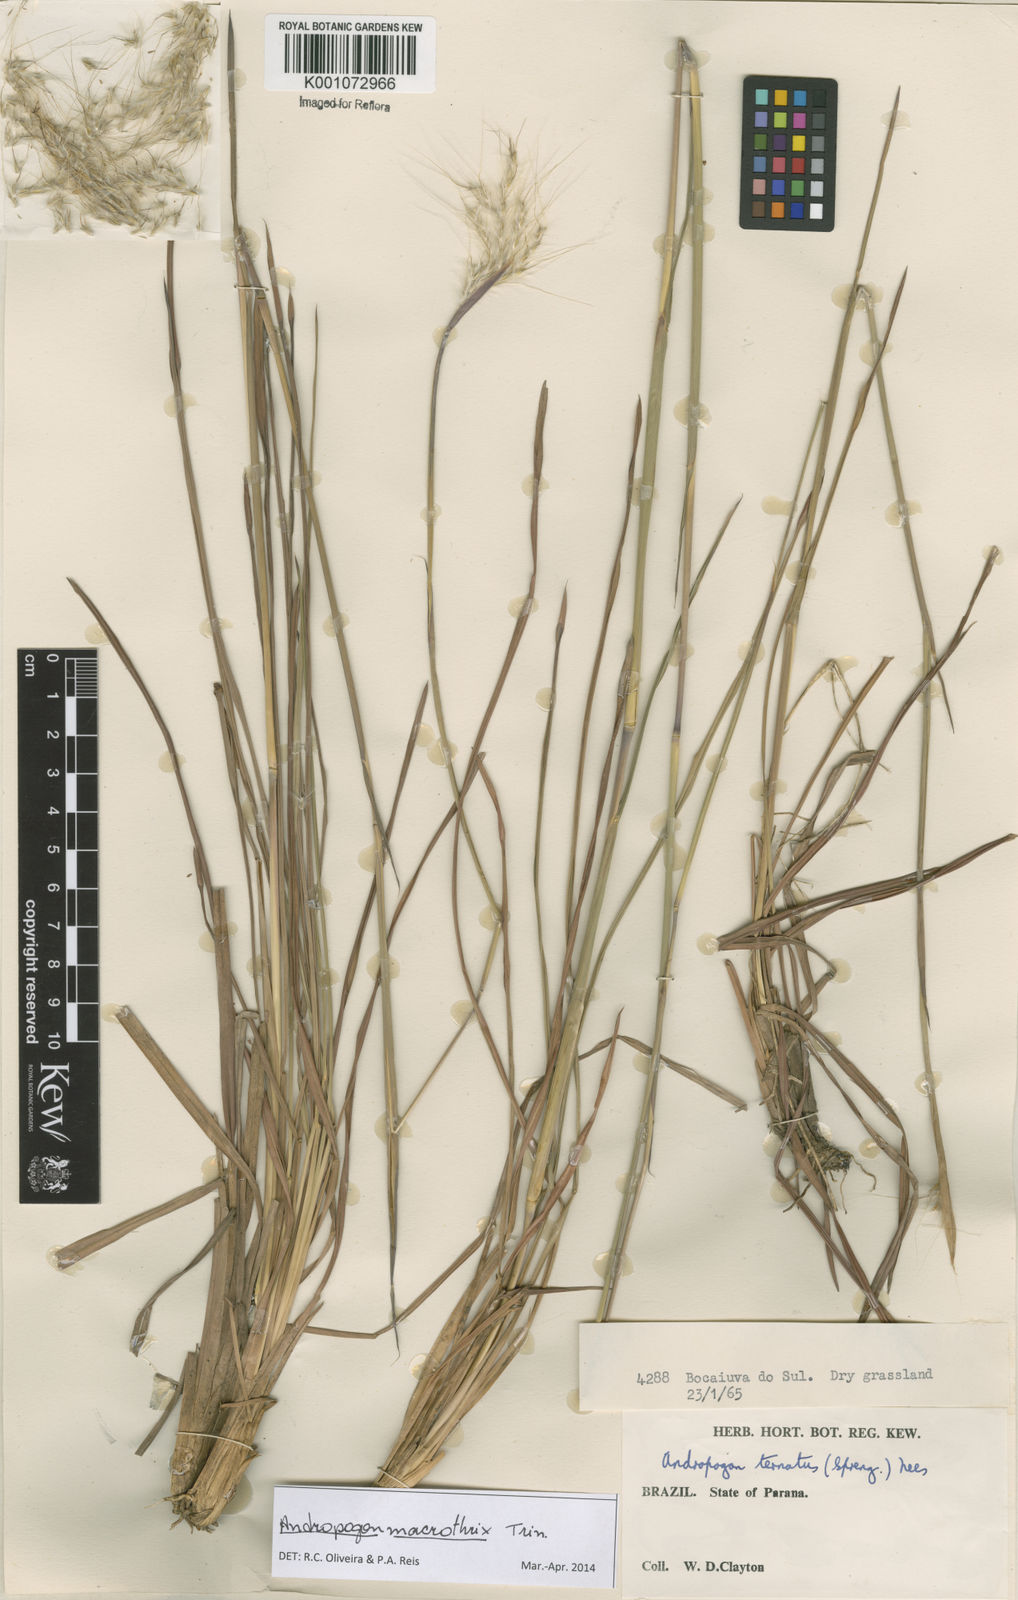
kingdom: Plantae
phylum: Tracheophyta
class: Liliopsida
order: Poales
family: Poaceae
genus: Andropogon
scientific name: Andropogon macrothrix
